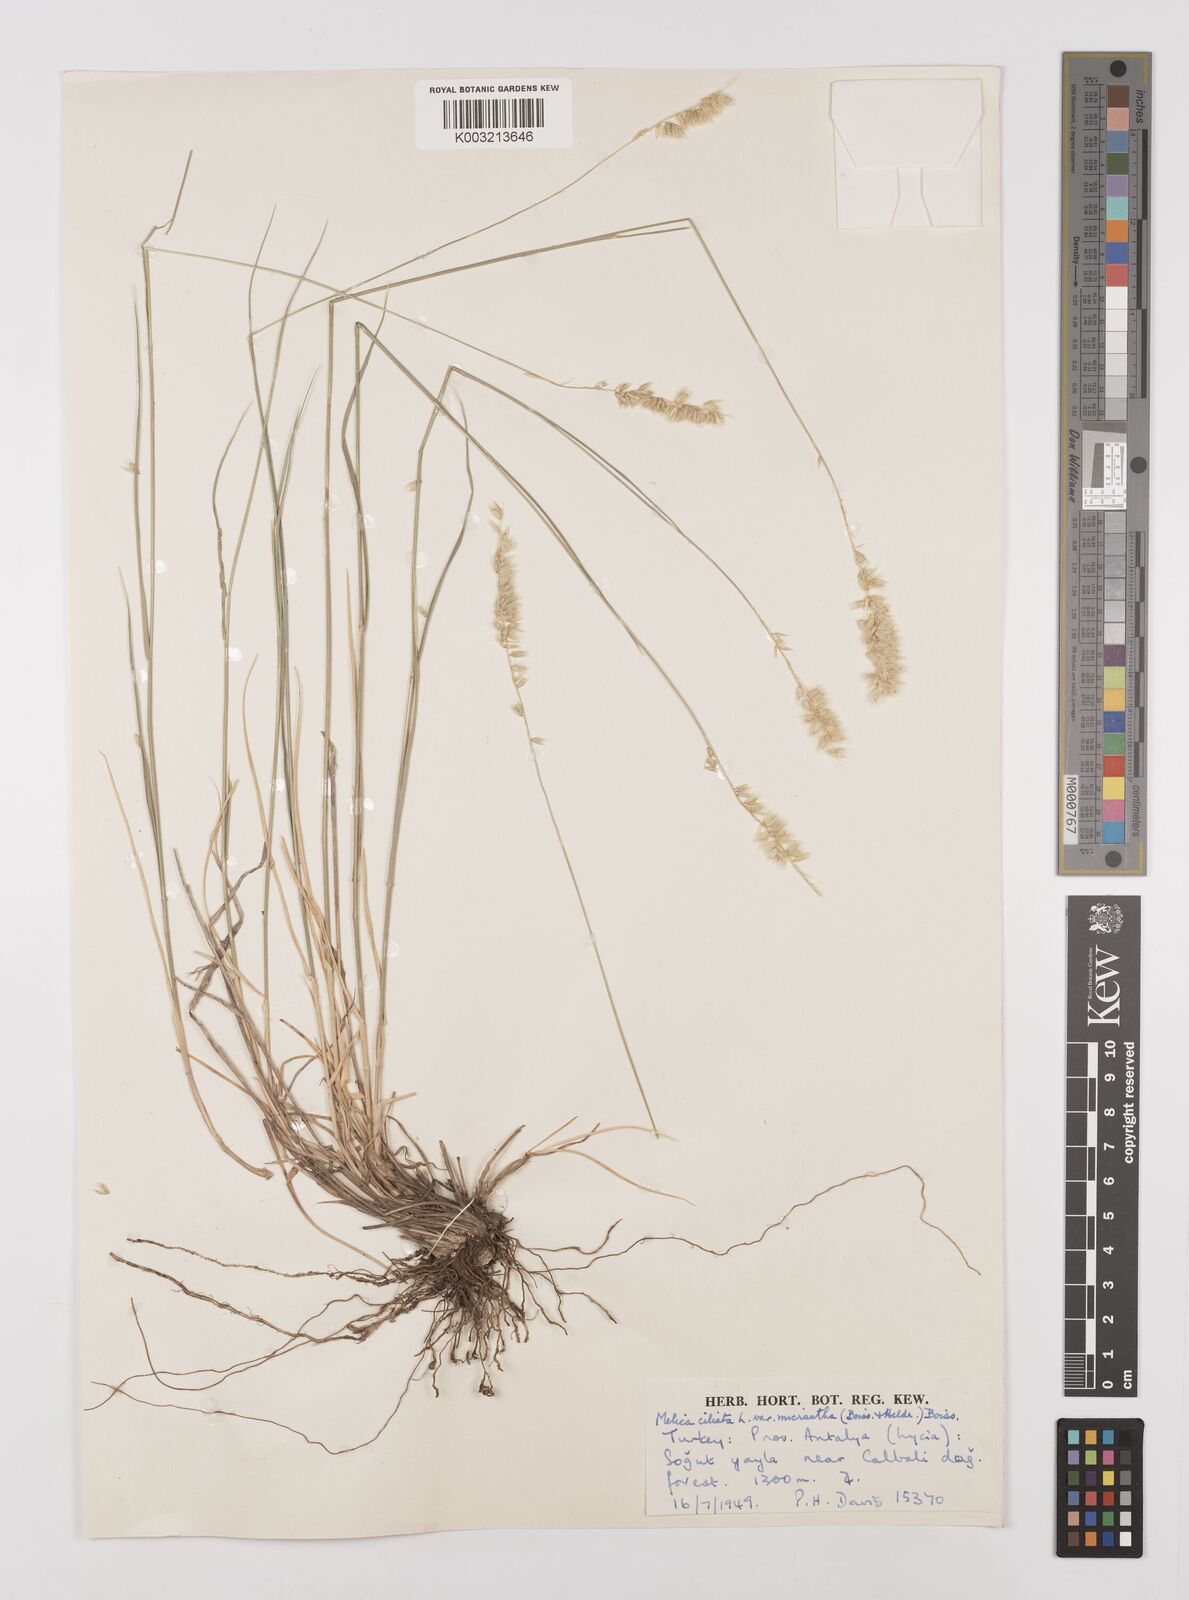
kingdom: Plantae
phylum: Tracheophyta
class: Liliopsida
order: Poales
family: Poaceae
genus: Melica
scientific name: Melica ciliata
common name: Hairy melicgrass
